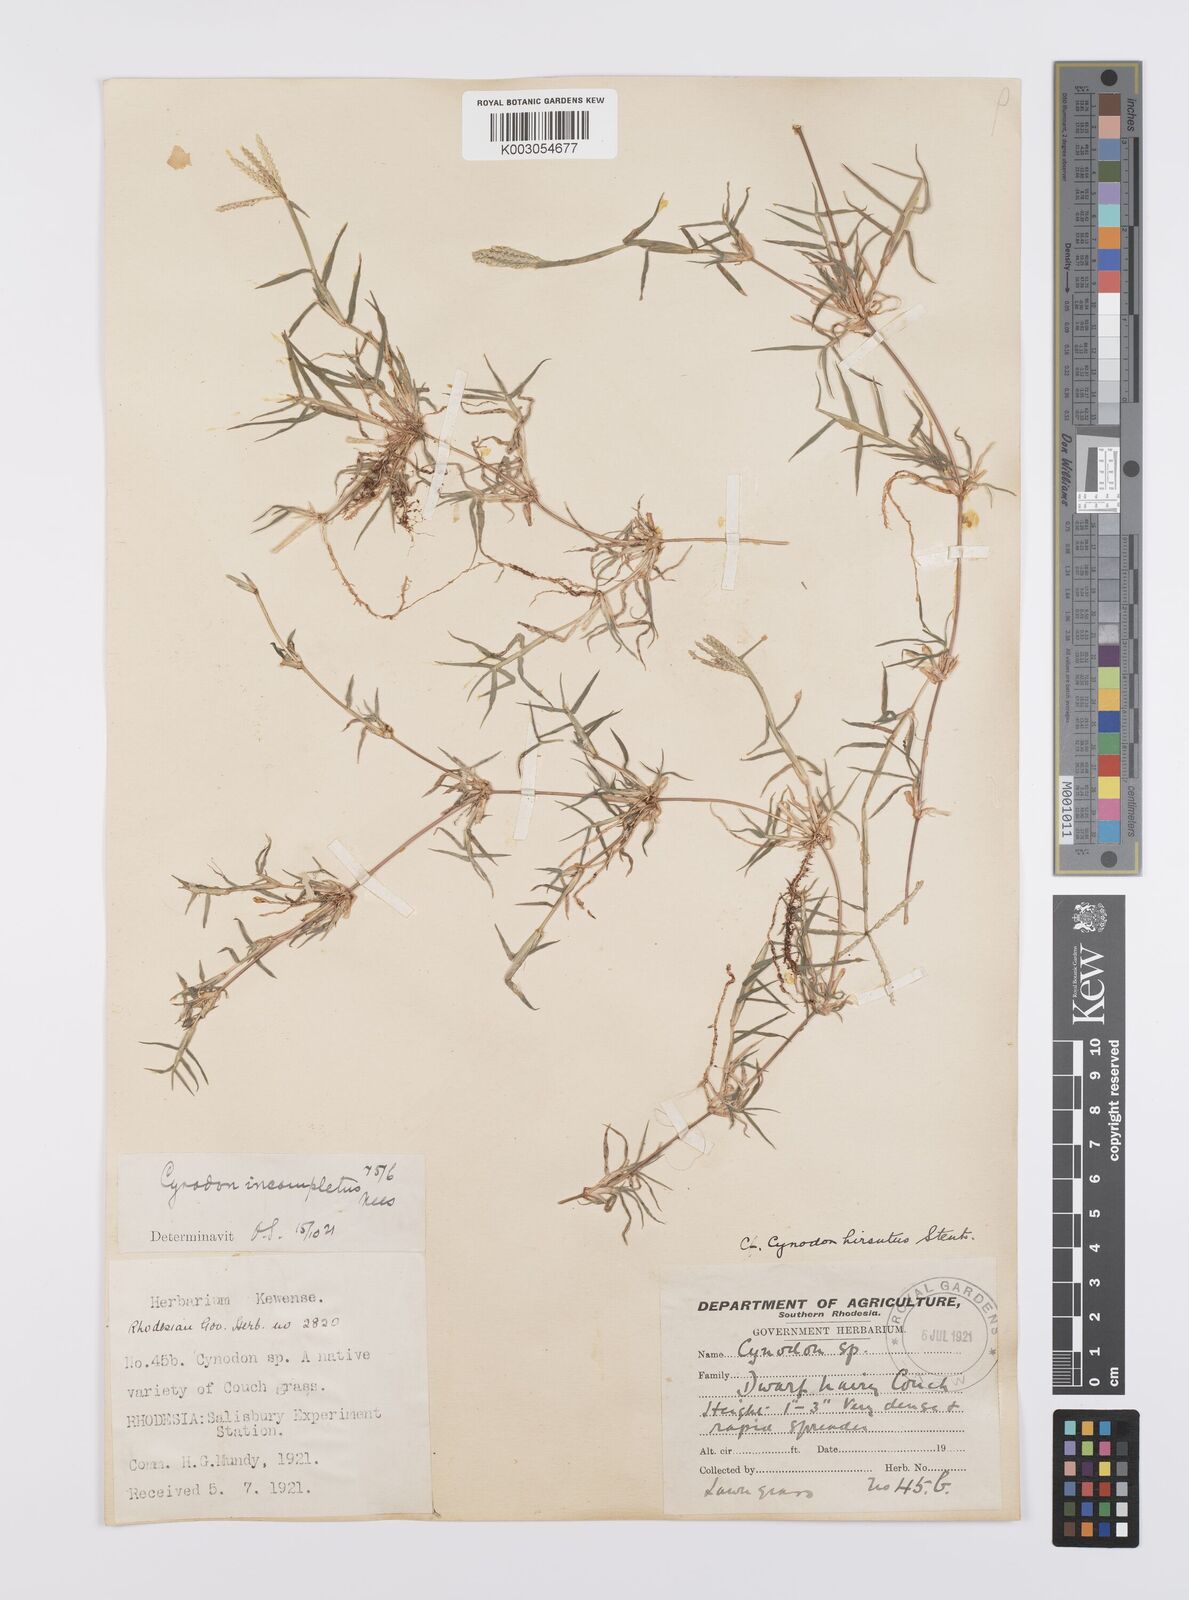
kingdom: Plantae
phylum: Tracheophyta
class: Liliopsida
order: Poales
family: Poaceae
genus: Cynodon
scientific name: Cynodon incompletus
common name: African bermuda-grass
